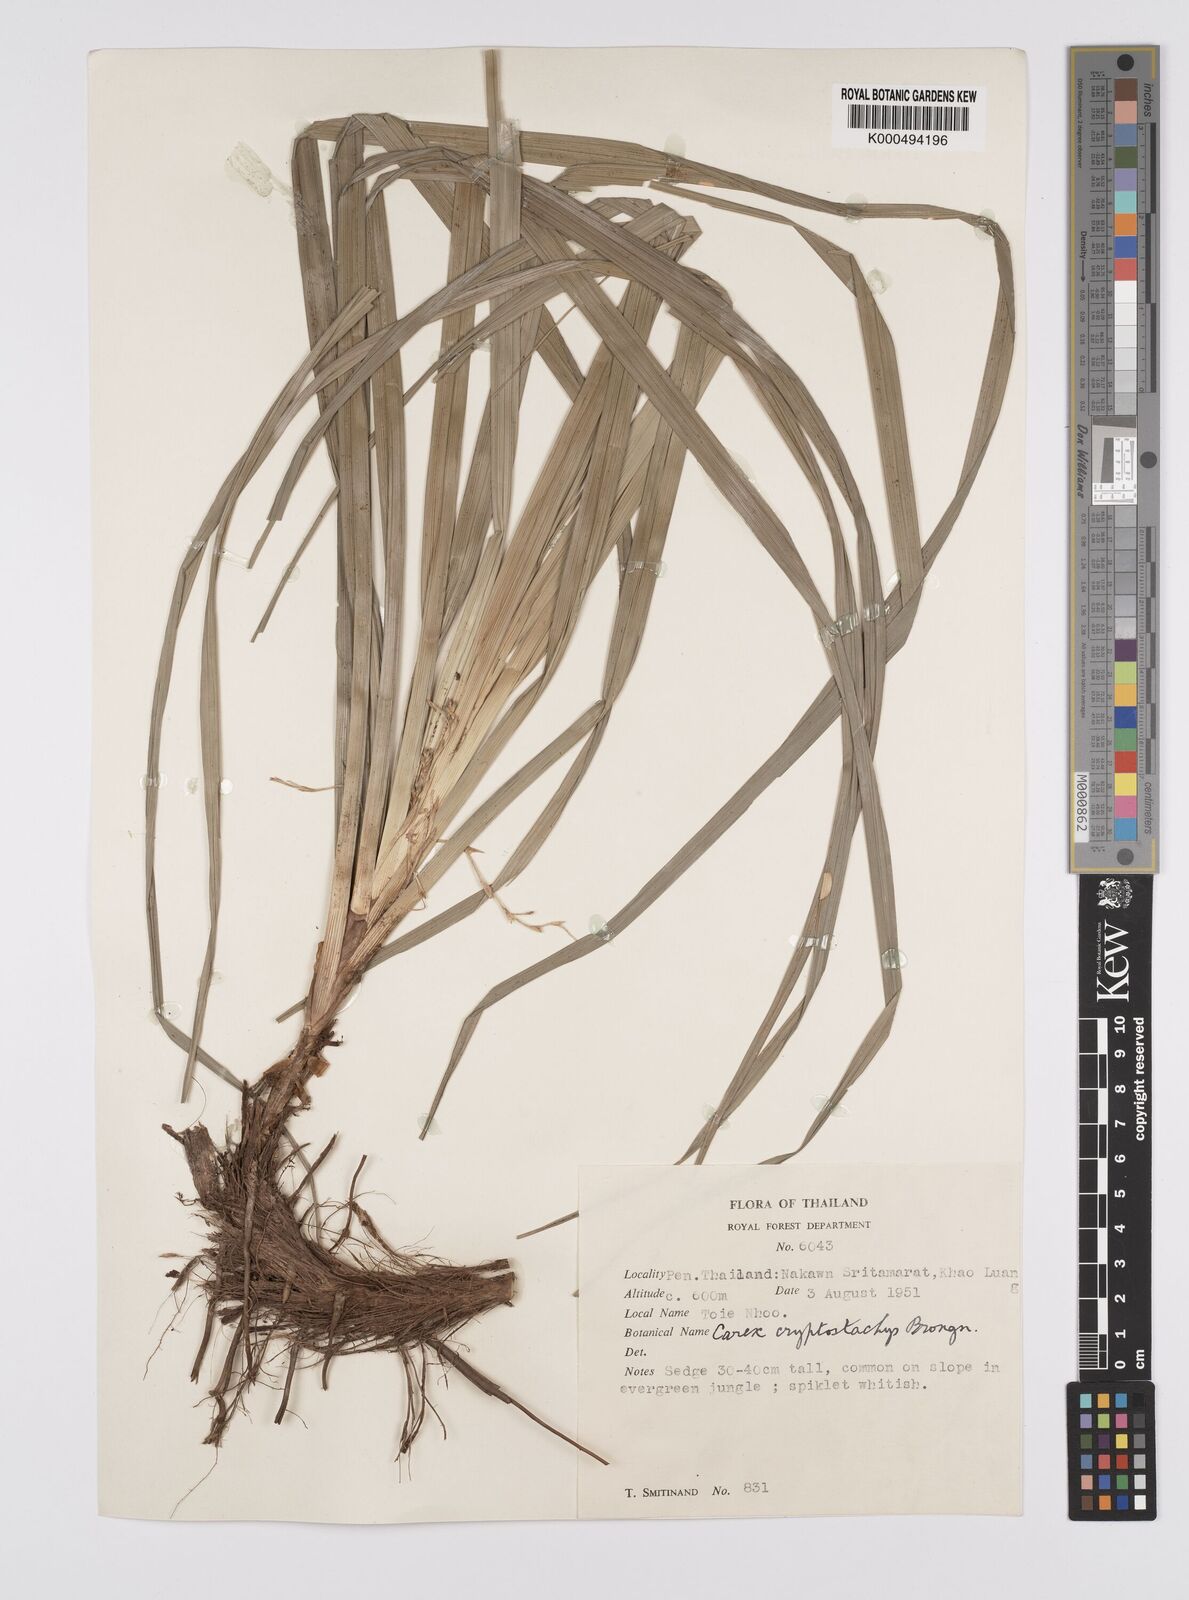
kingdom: Plantae
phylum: Tracheophyta
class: Liliopsida
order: Poales
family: Cyperaceae
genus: Carex
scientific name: Carex cryptostachys
